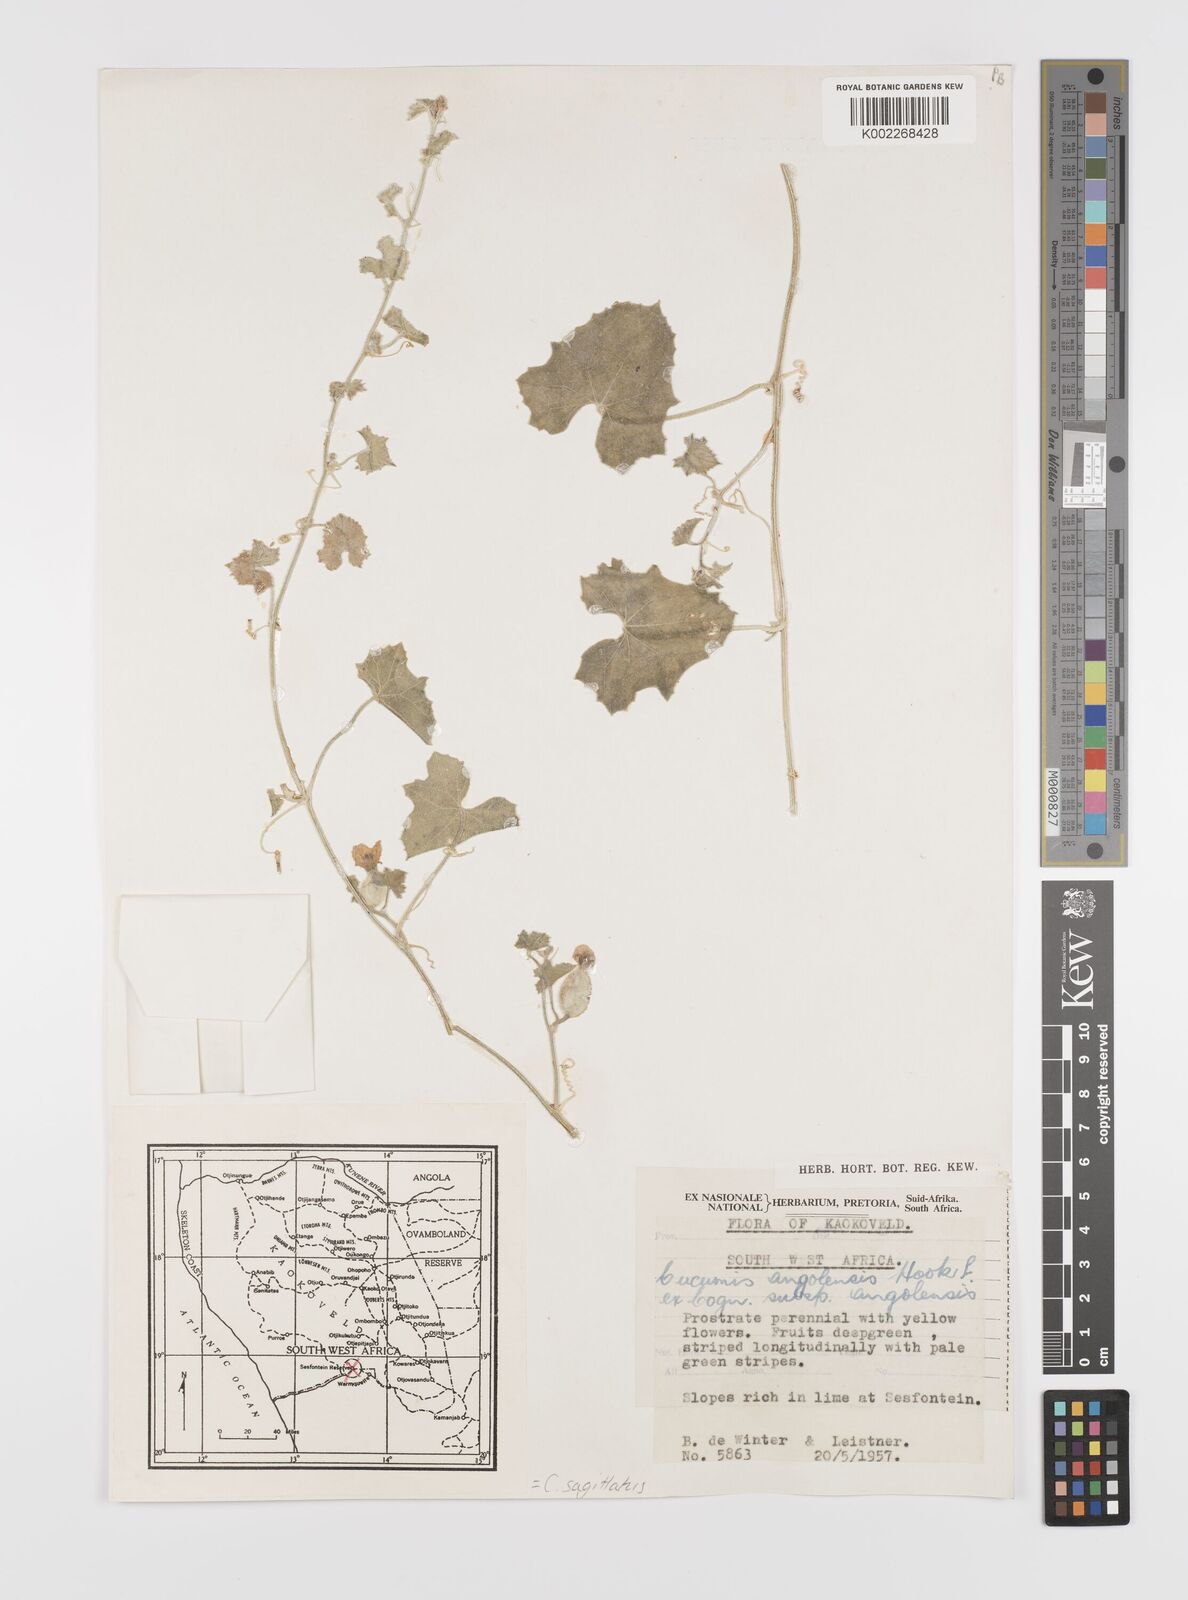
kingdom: Plantae
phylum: Tracheophyta
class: Magnoliopsida
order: Cucurbitales
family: Cucurbitaceae
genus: Cucumis
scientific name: Cucumis sagittatus
